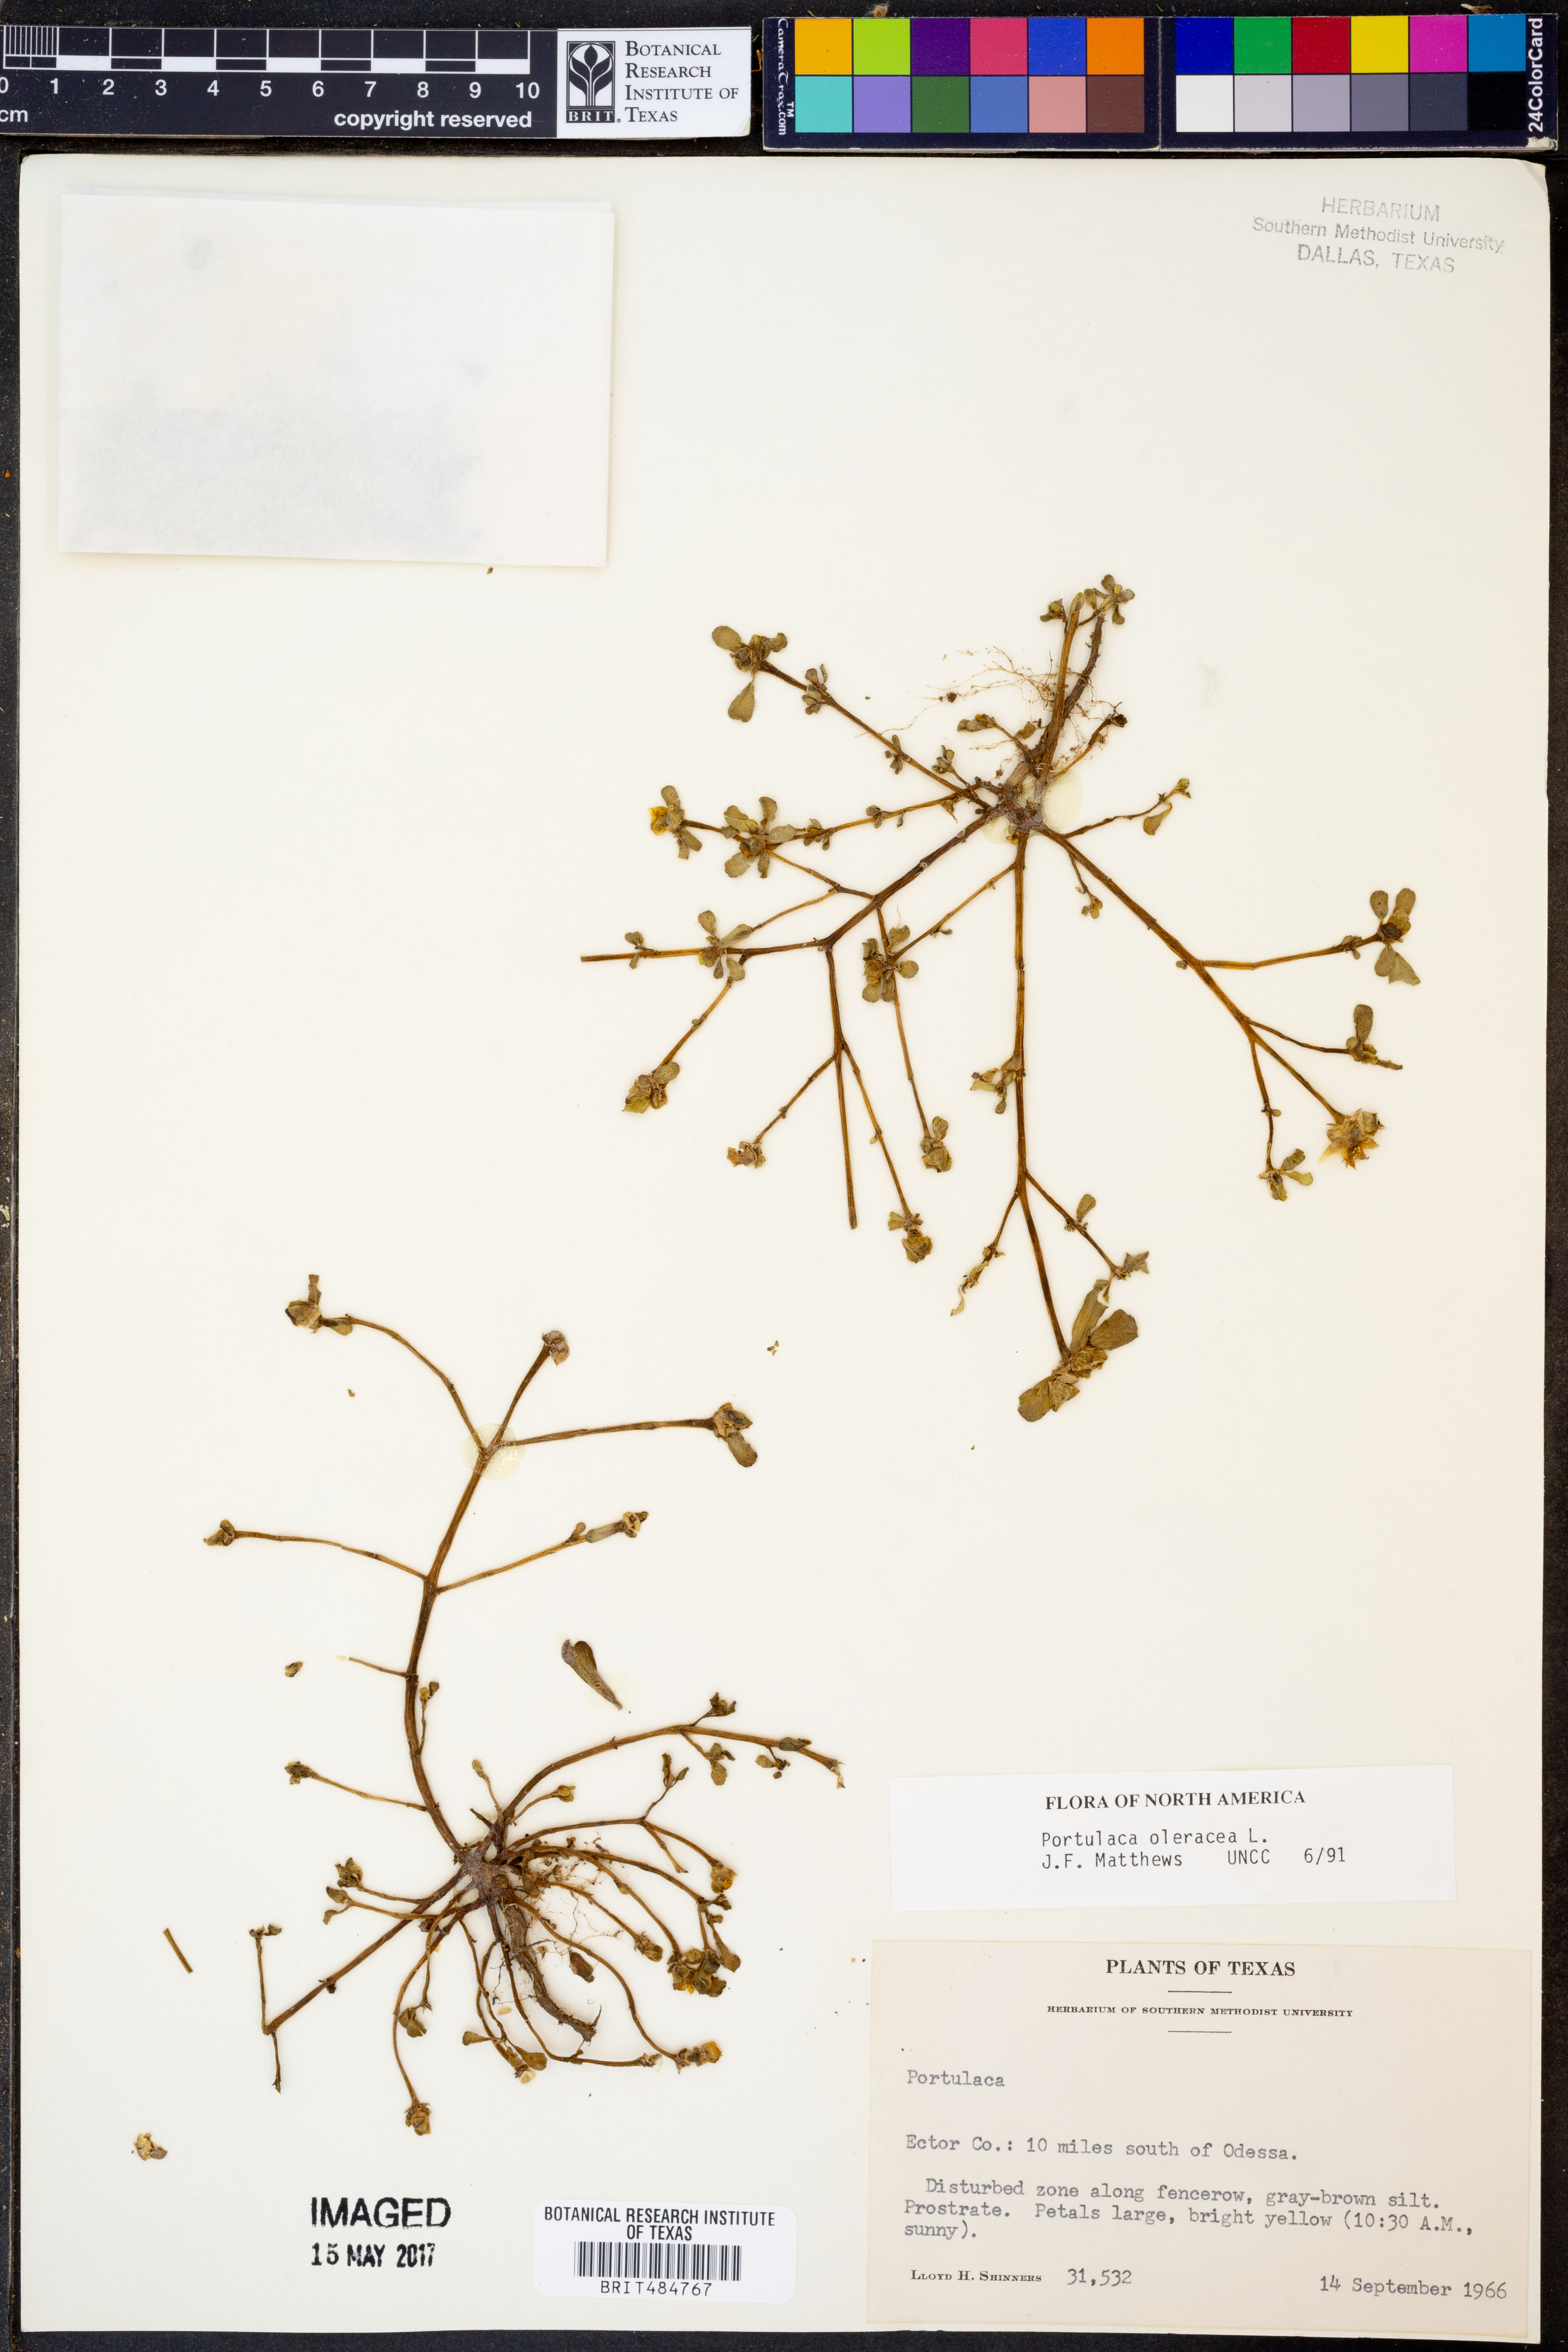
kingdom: Plantae
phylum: Tracheophyta
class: Magnoliopsida
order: Caryophyllales
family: Portulacaceae
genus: Portulaca
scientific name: Portulaca oleracea
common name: Common purslane
